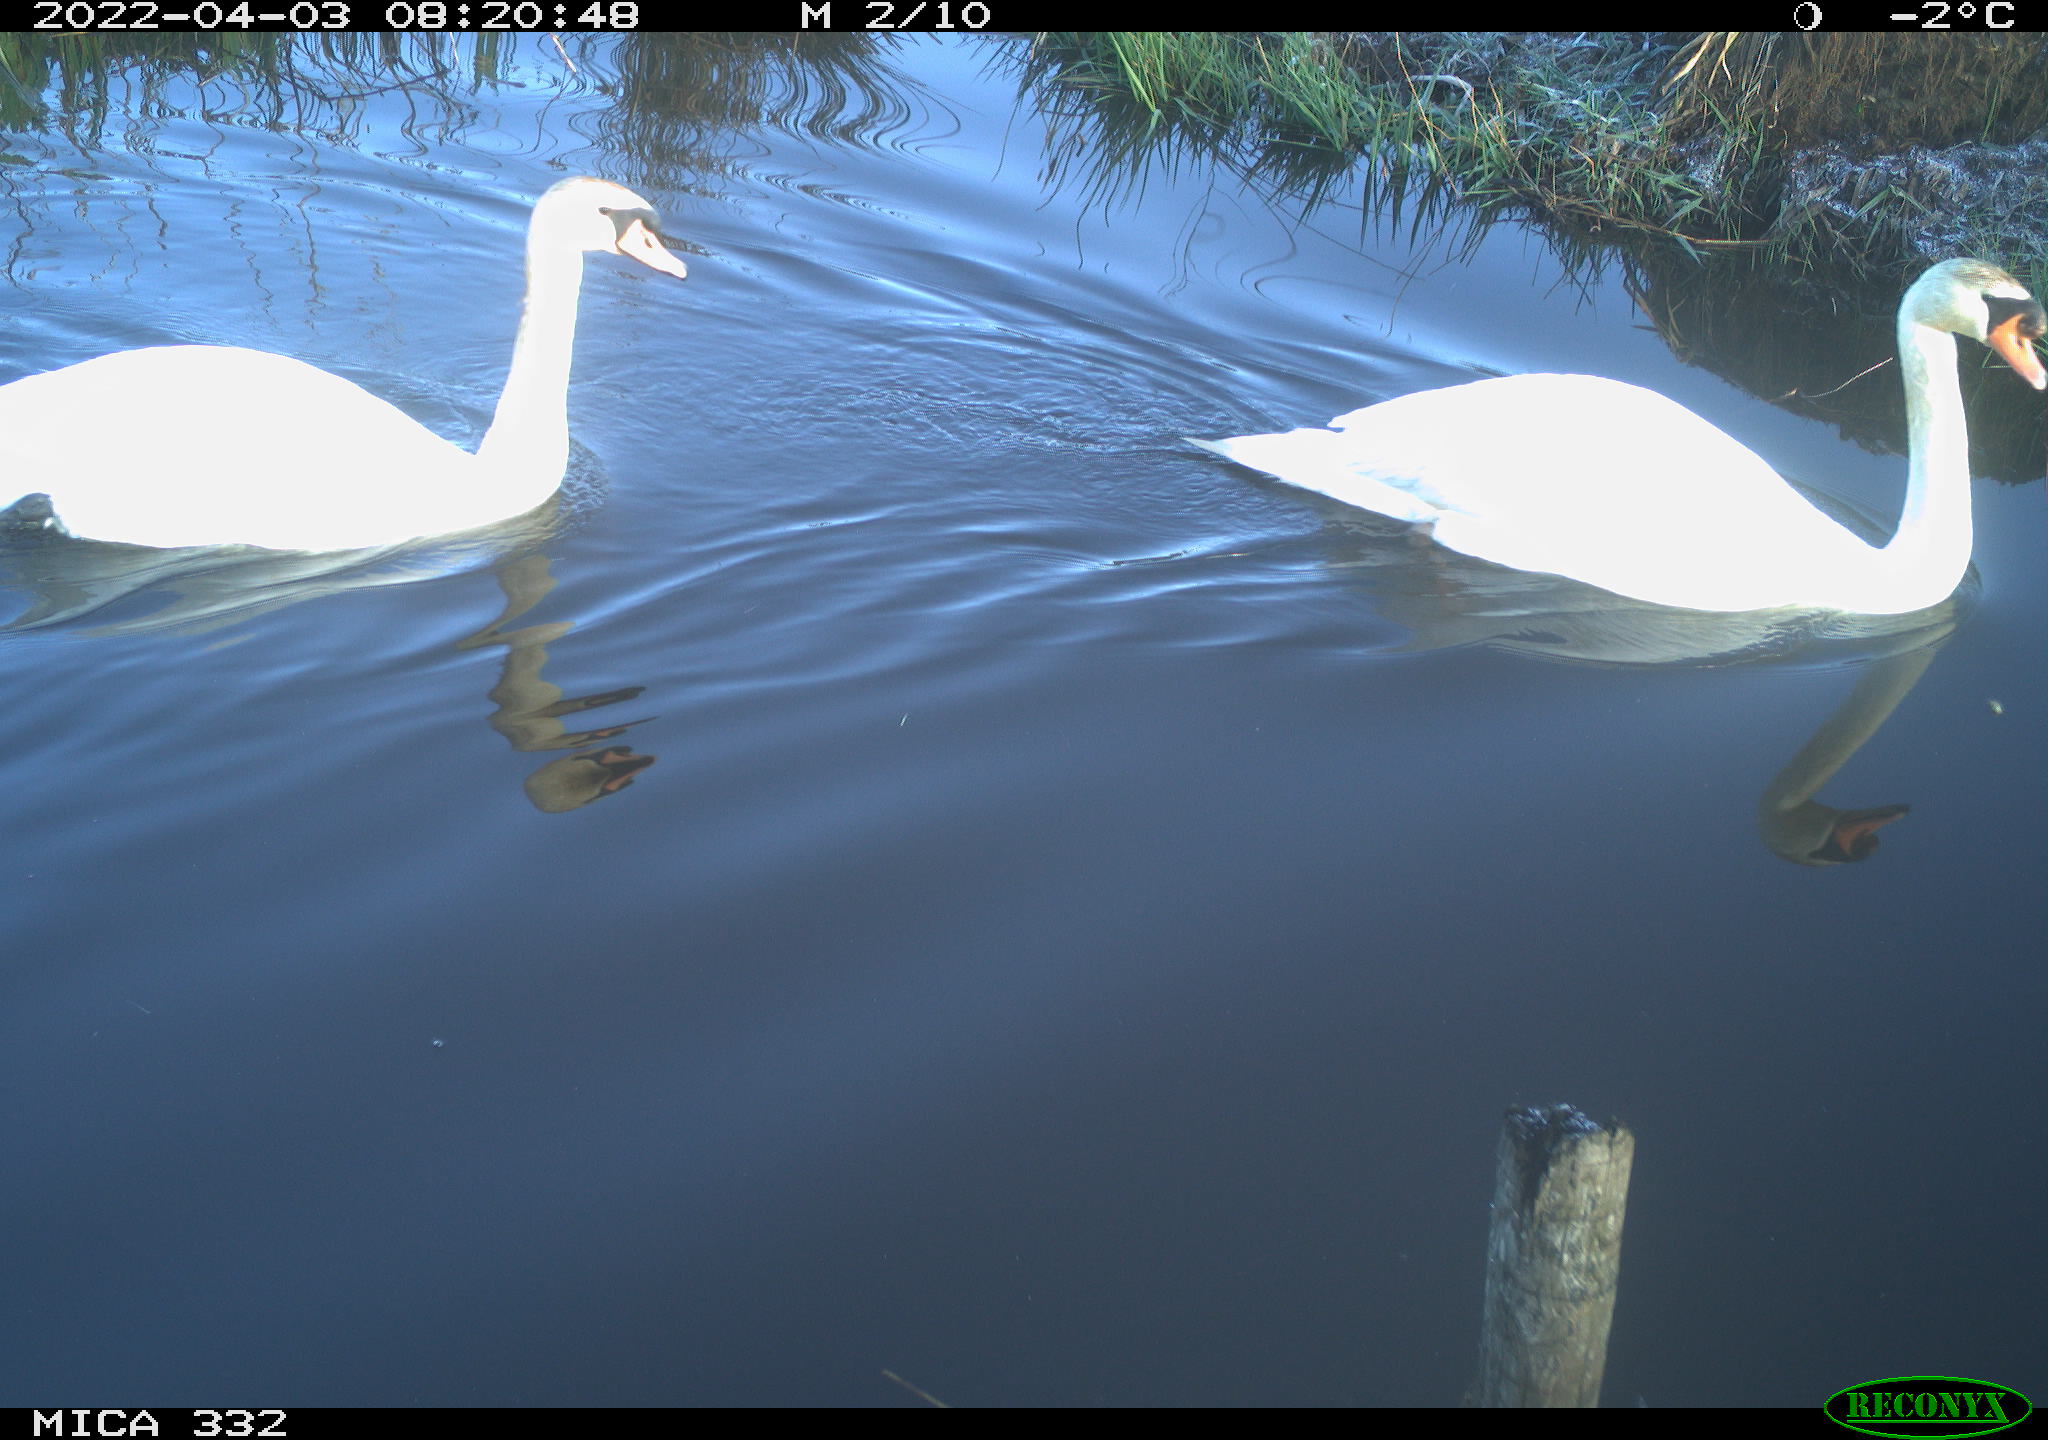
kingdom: Animalia
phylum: Chordata
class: Aves
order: Anseriformes
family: Anatidae
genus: Cygnus
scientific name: Cygnus olor
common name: Mute swan
